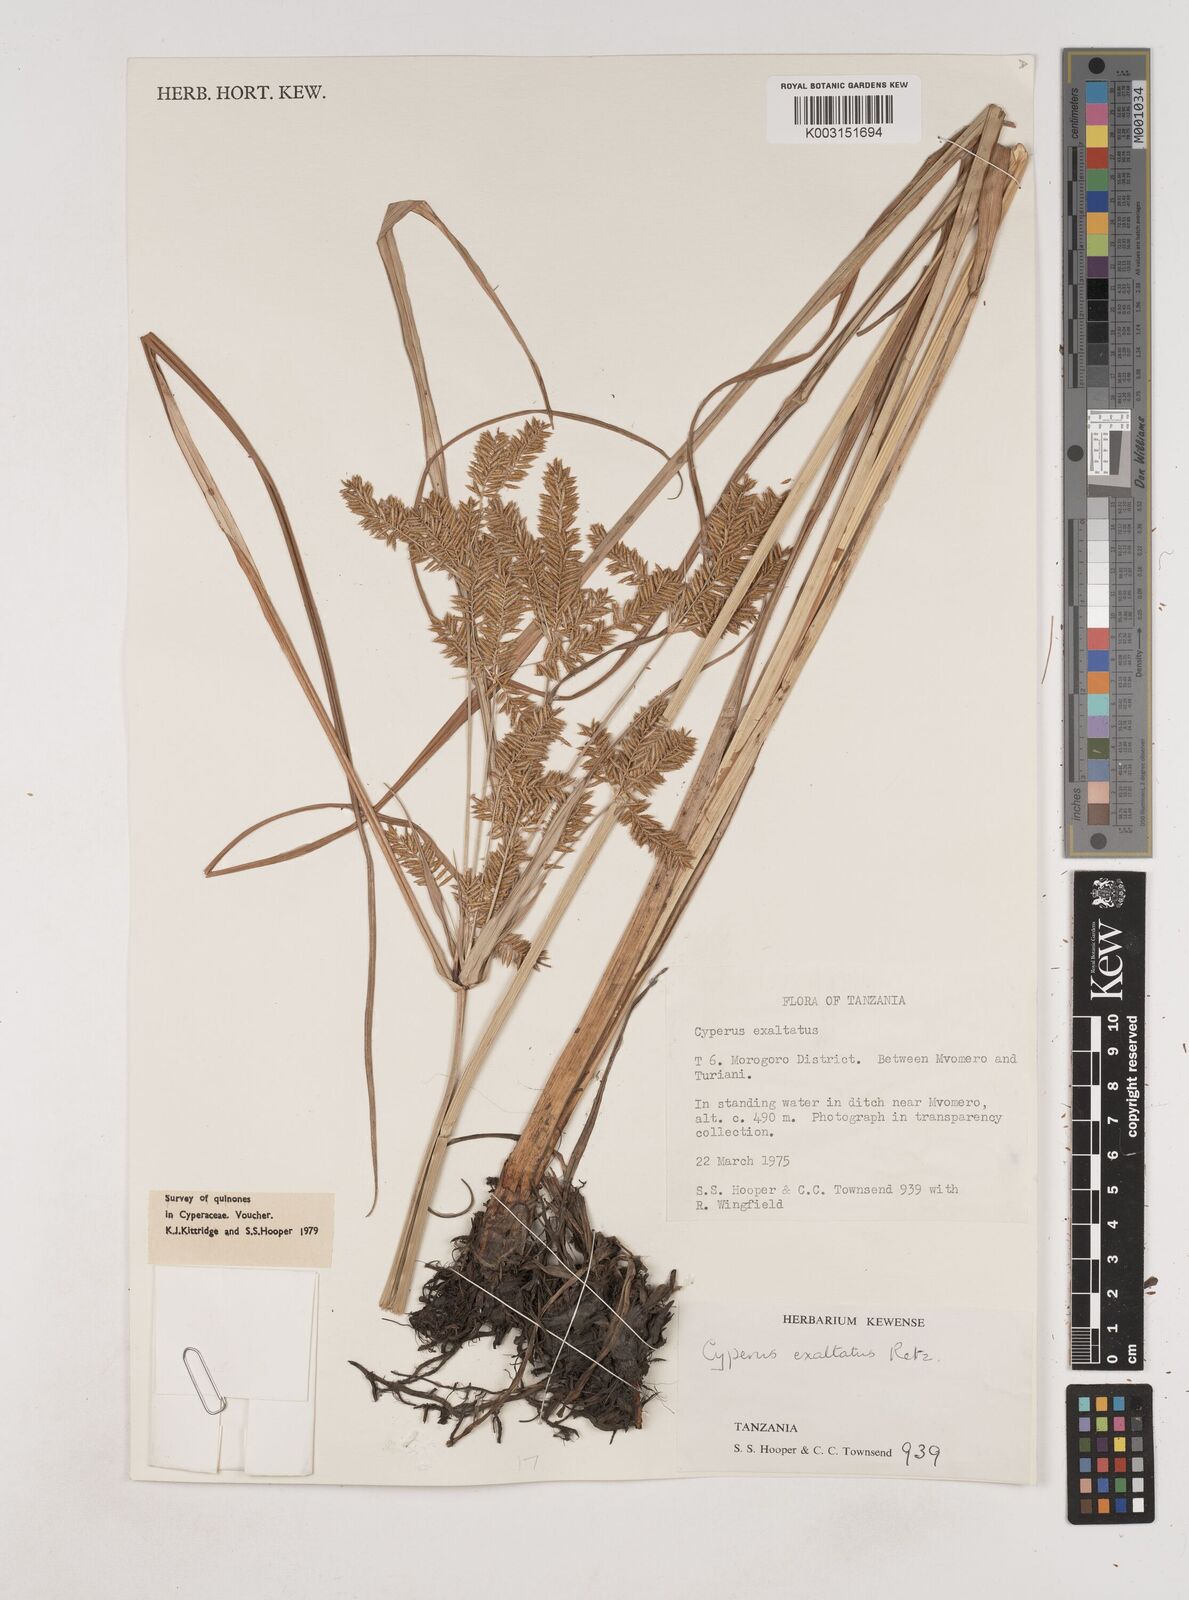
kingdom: Plantae
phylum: Tracheophyta
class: Liliopsida
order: Poales
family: Cyperaceae
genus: Cyperus
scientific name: Cyperus exaltatus
